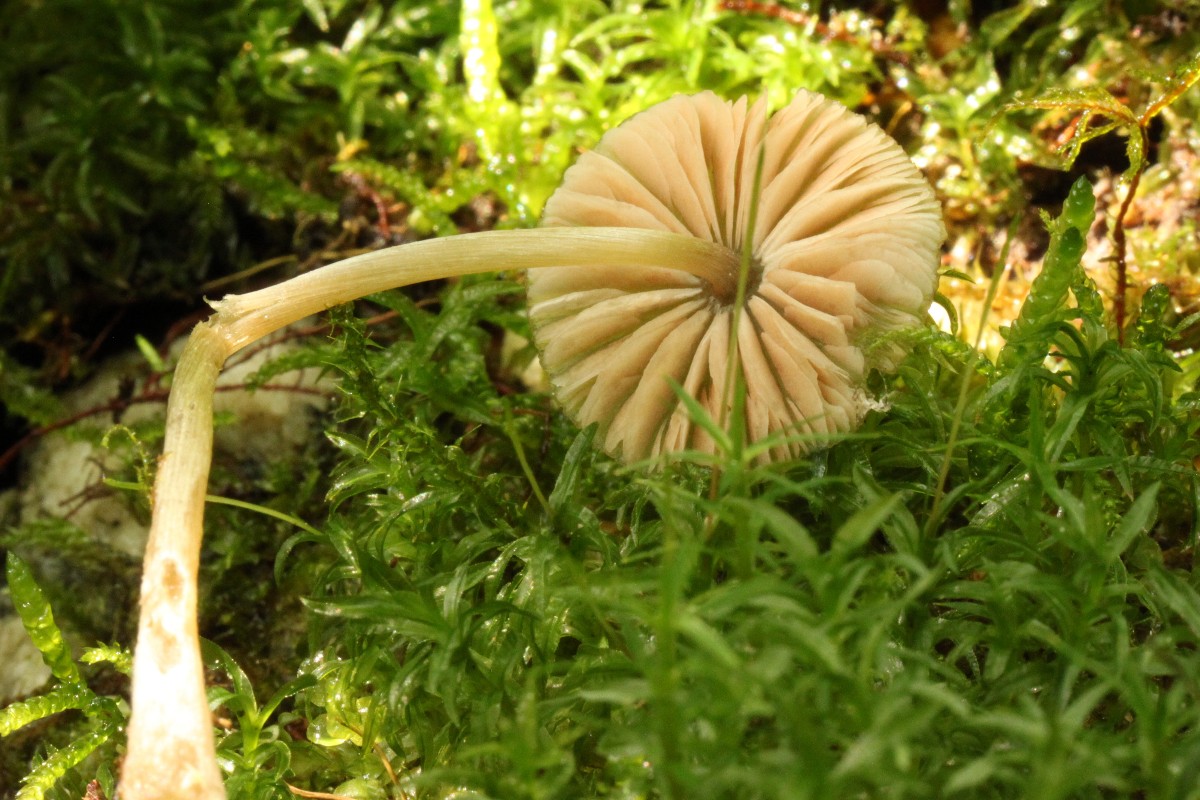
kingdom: Fungi
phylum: Basidiomycota
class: Agaricomycetes
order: Agaricales
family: Entolomataceae
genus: Entoloma
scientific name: Entoloma conferendum
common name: stjernesporet rødblad
